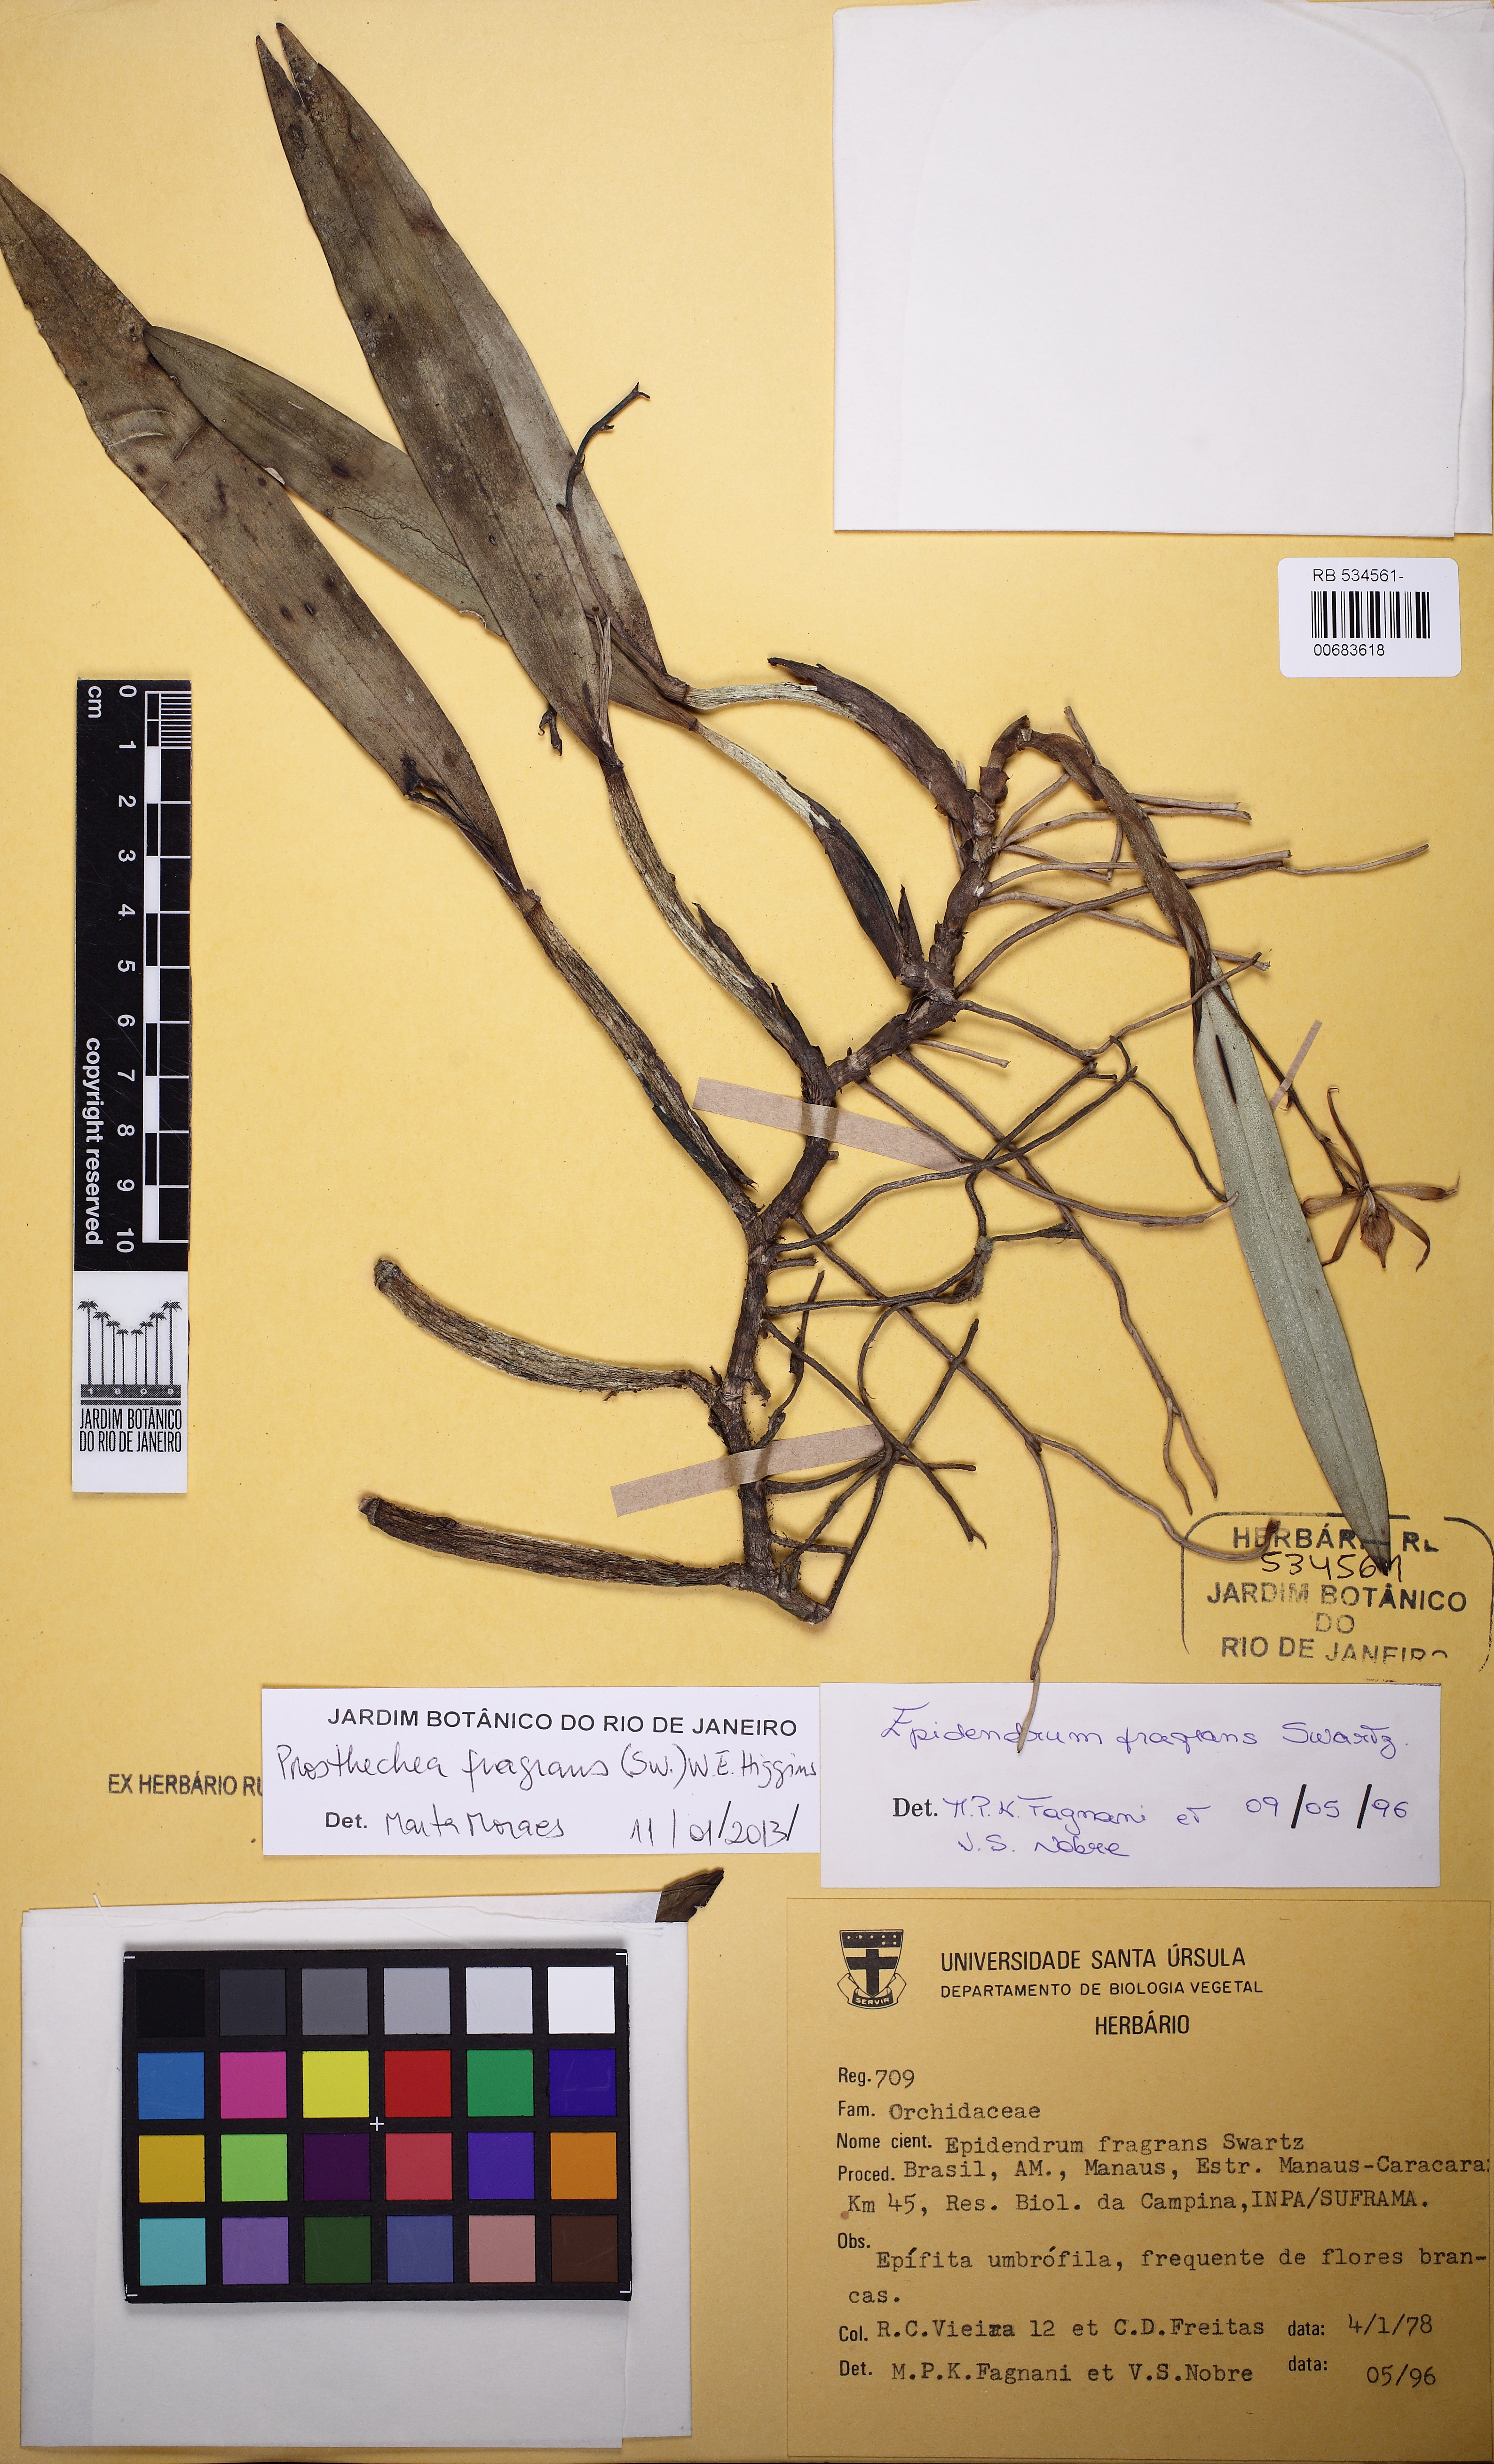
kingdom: Plantae
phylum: Tracheophyta
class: Liliopsida
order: Asparagales
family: Orchidaceae
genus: Prosthechea
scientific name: Prosthechea aemula
